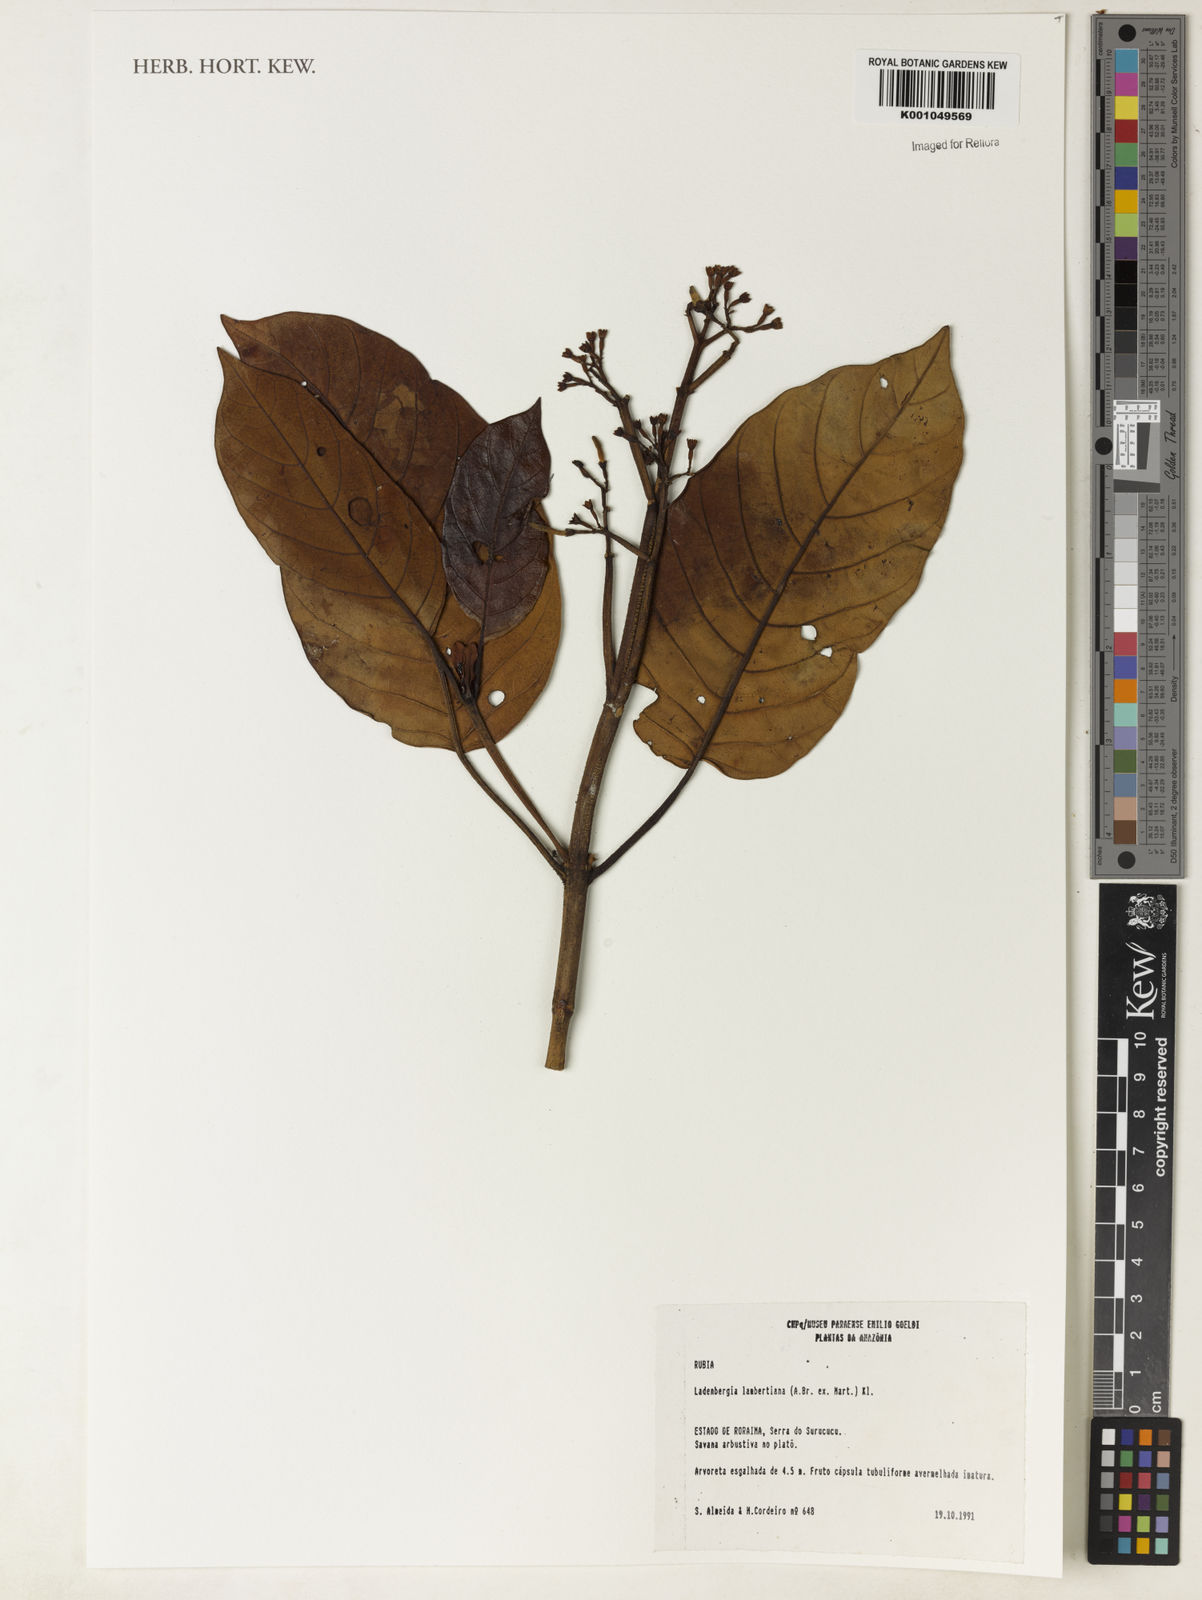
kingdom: Plantae
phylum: Tracheophyta
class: Magnoliopsida
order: Gentianales
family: Rubiaceae
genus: Ladenbergia
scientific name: Ladenbergia lambertiana
